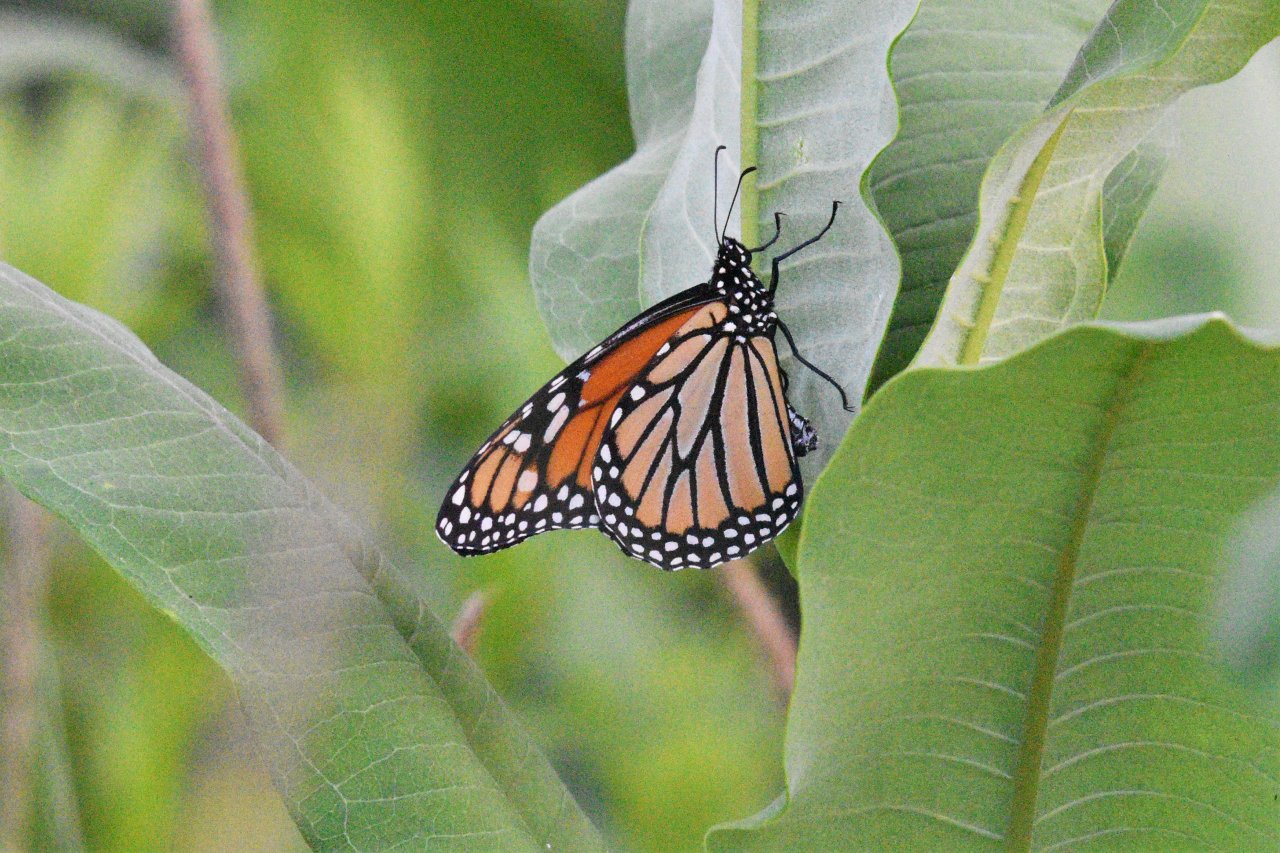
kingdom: Animalia
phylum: Arthropoda
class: Insecta
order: Lepidoptera
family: Nymphalidae
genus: Danaus
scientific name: Danaus plexippus
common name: Monarch
